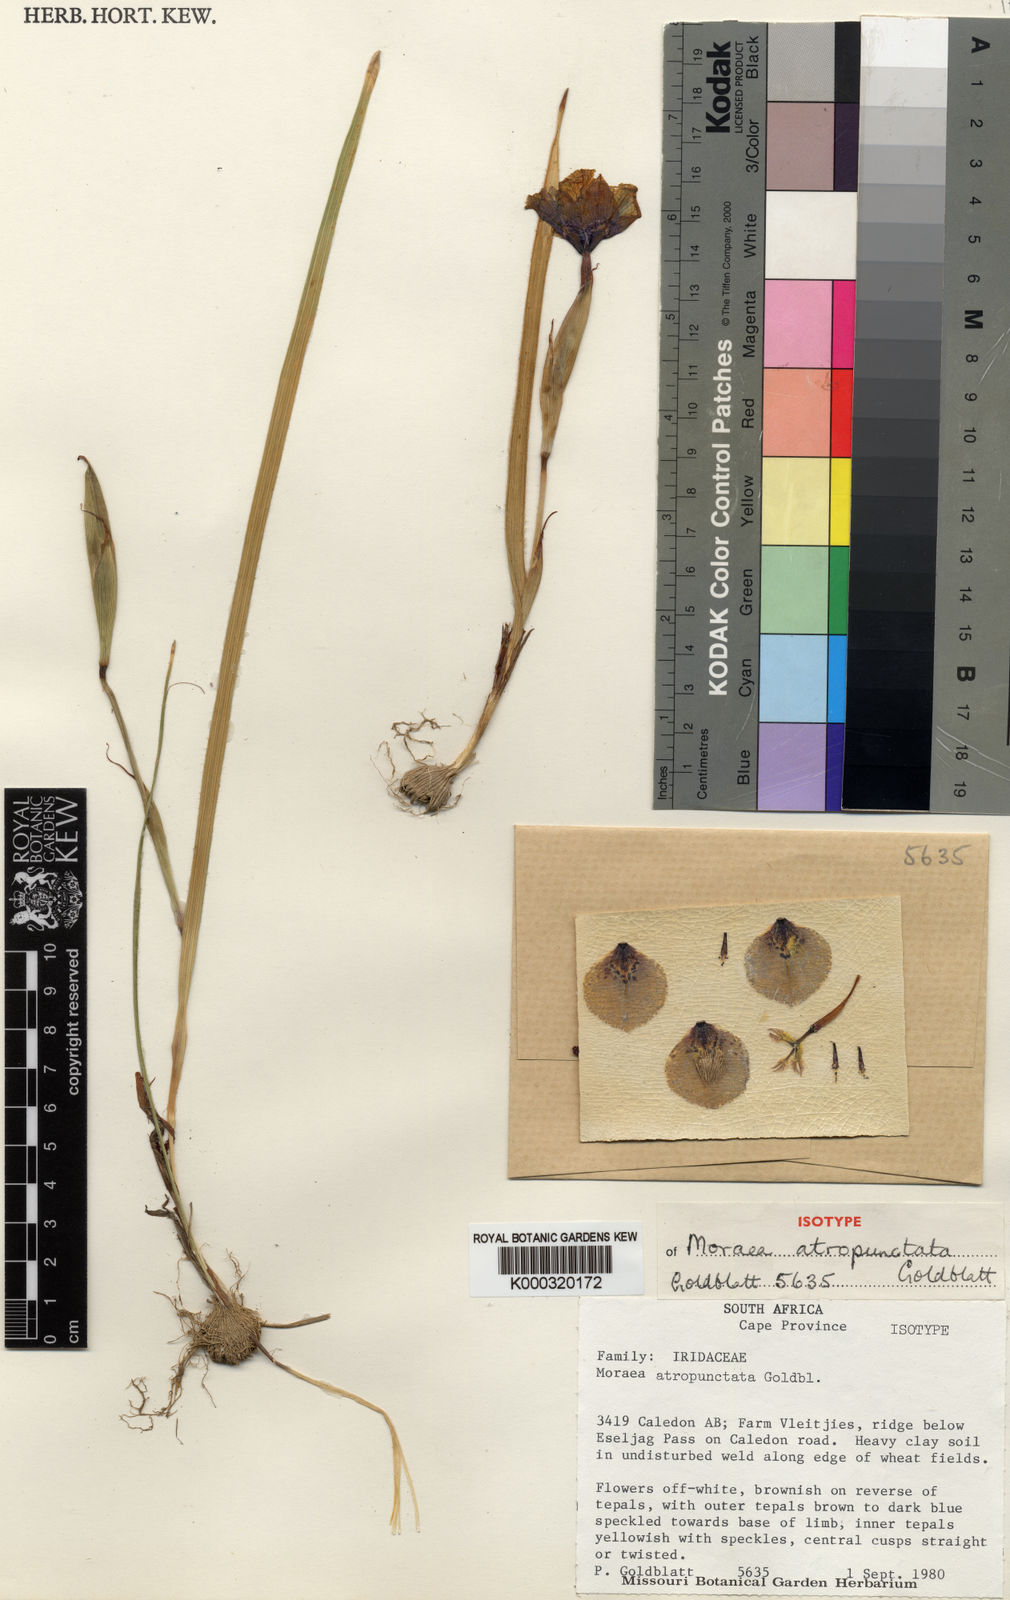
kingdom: Plantae
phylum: Tracheophyta
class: Liliopsida
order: Asparagales
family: Iridaceae
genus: Moraea
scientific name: Moraea atropunctata
